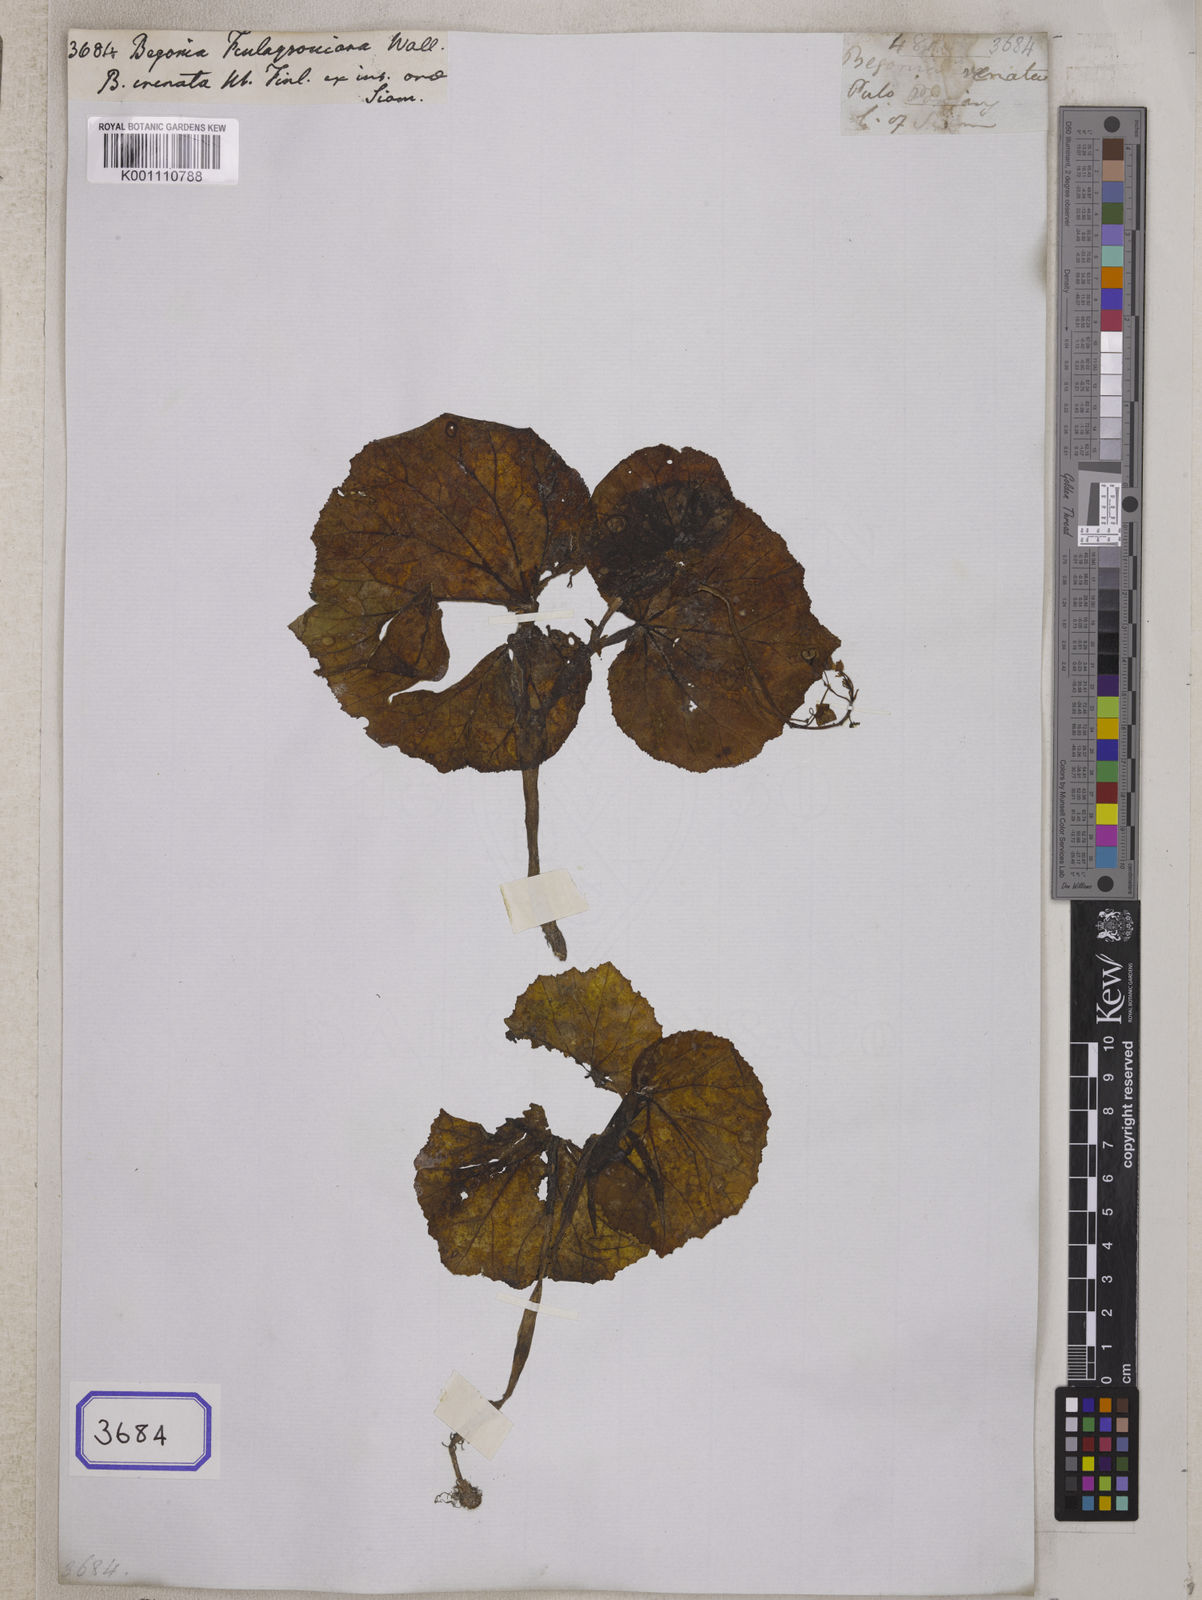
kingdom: Plantae
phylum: Tracheophyta
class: Magnoliopsida
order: Cucurbitales
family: Begoniaceae
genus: Begonia
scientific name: Begonia prolifera
